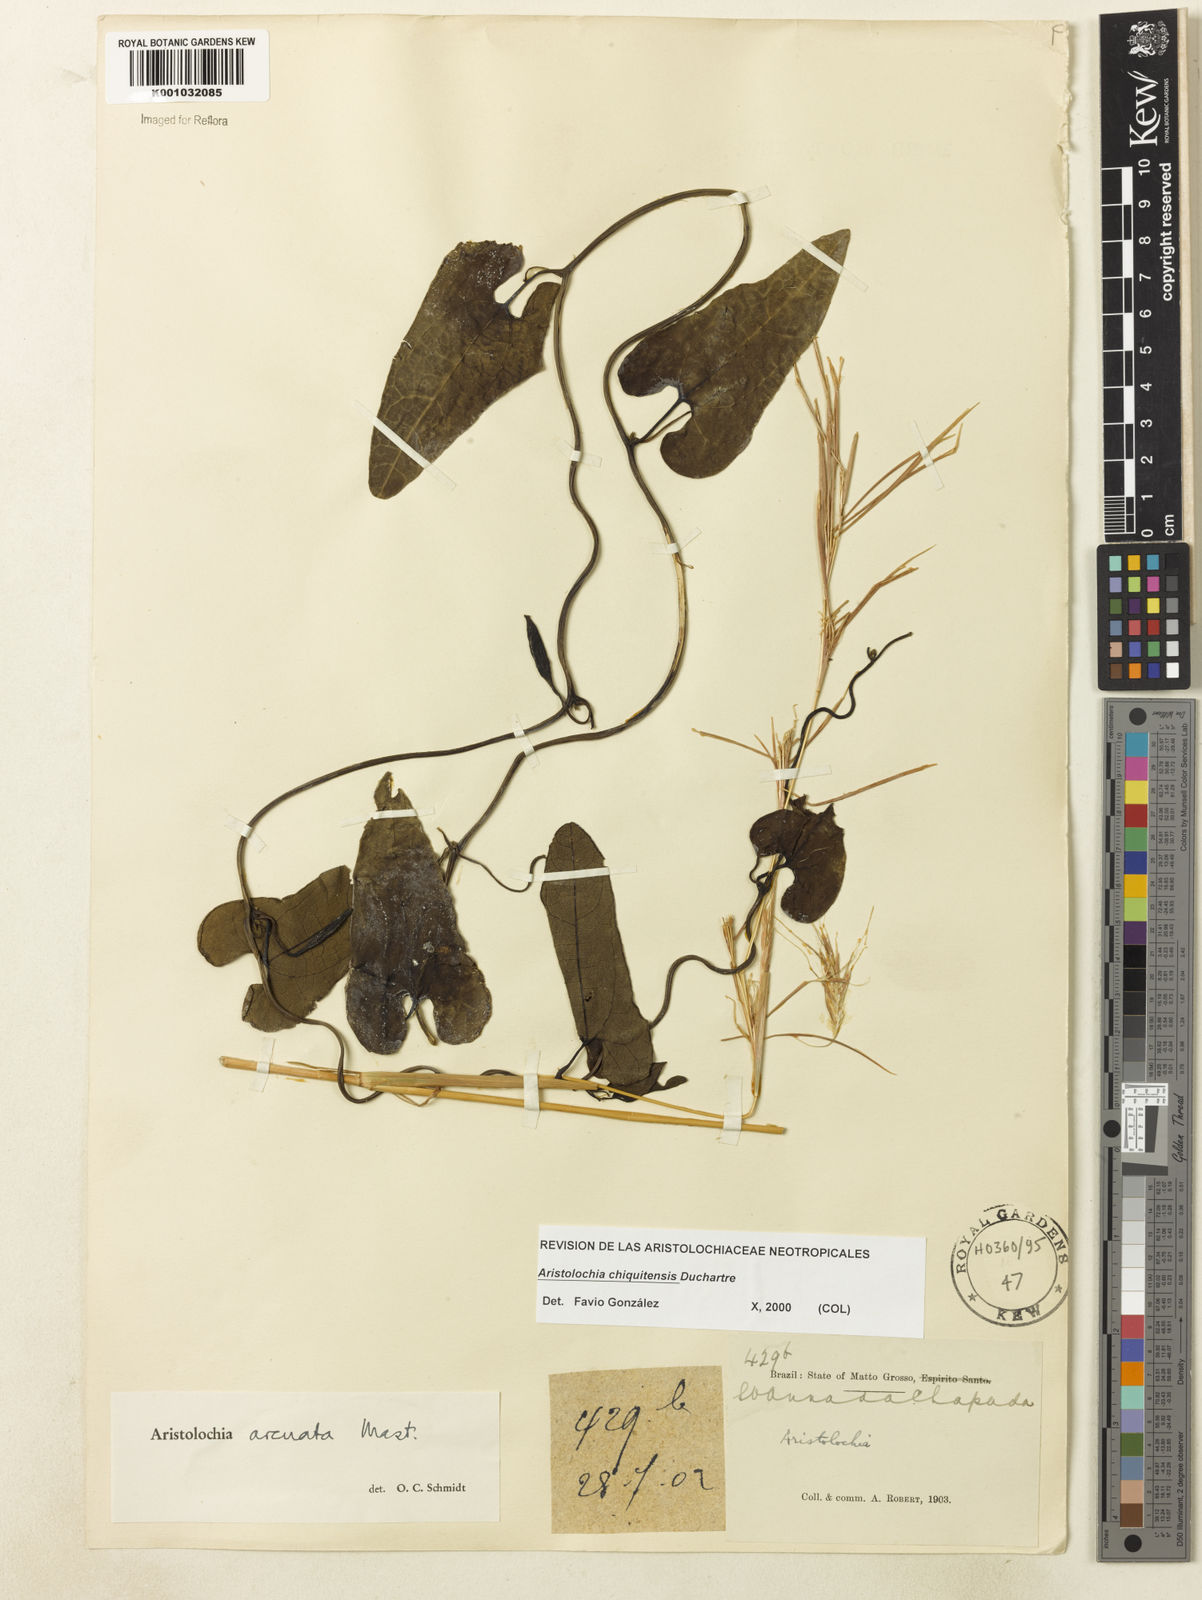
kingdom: Plantae
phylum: Tracheophyta
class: Magnoliopsida
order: Piperales
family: Aristolochiaceae
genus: Aristolochia
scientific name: Aristolochia chiquitensis
